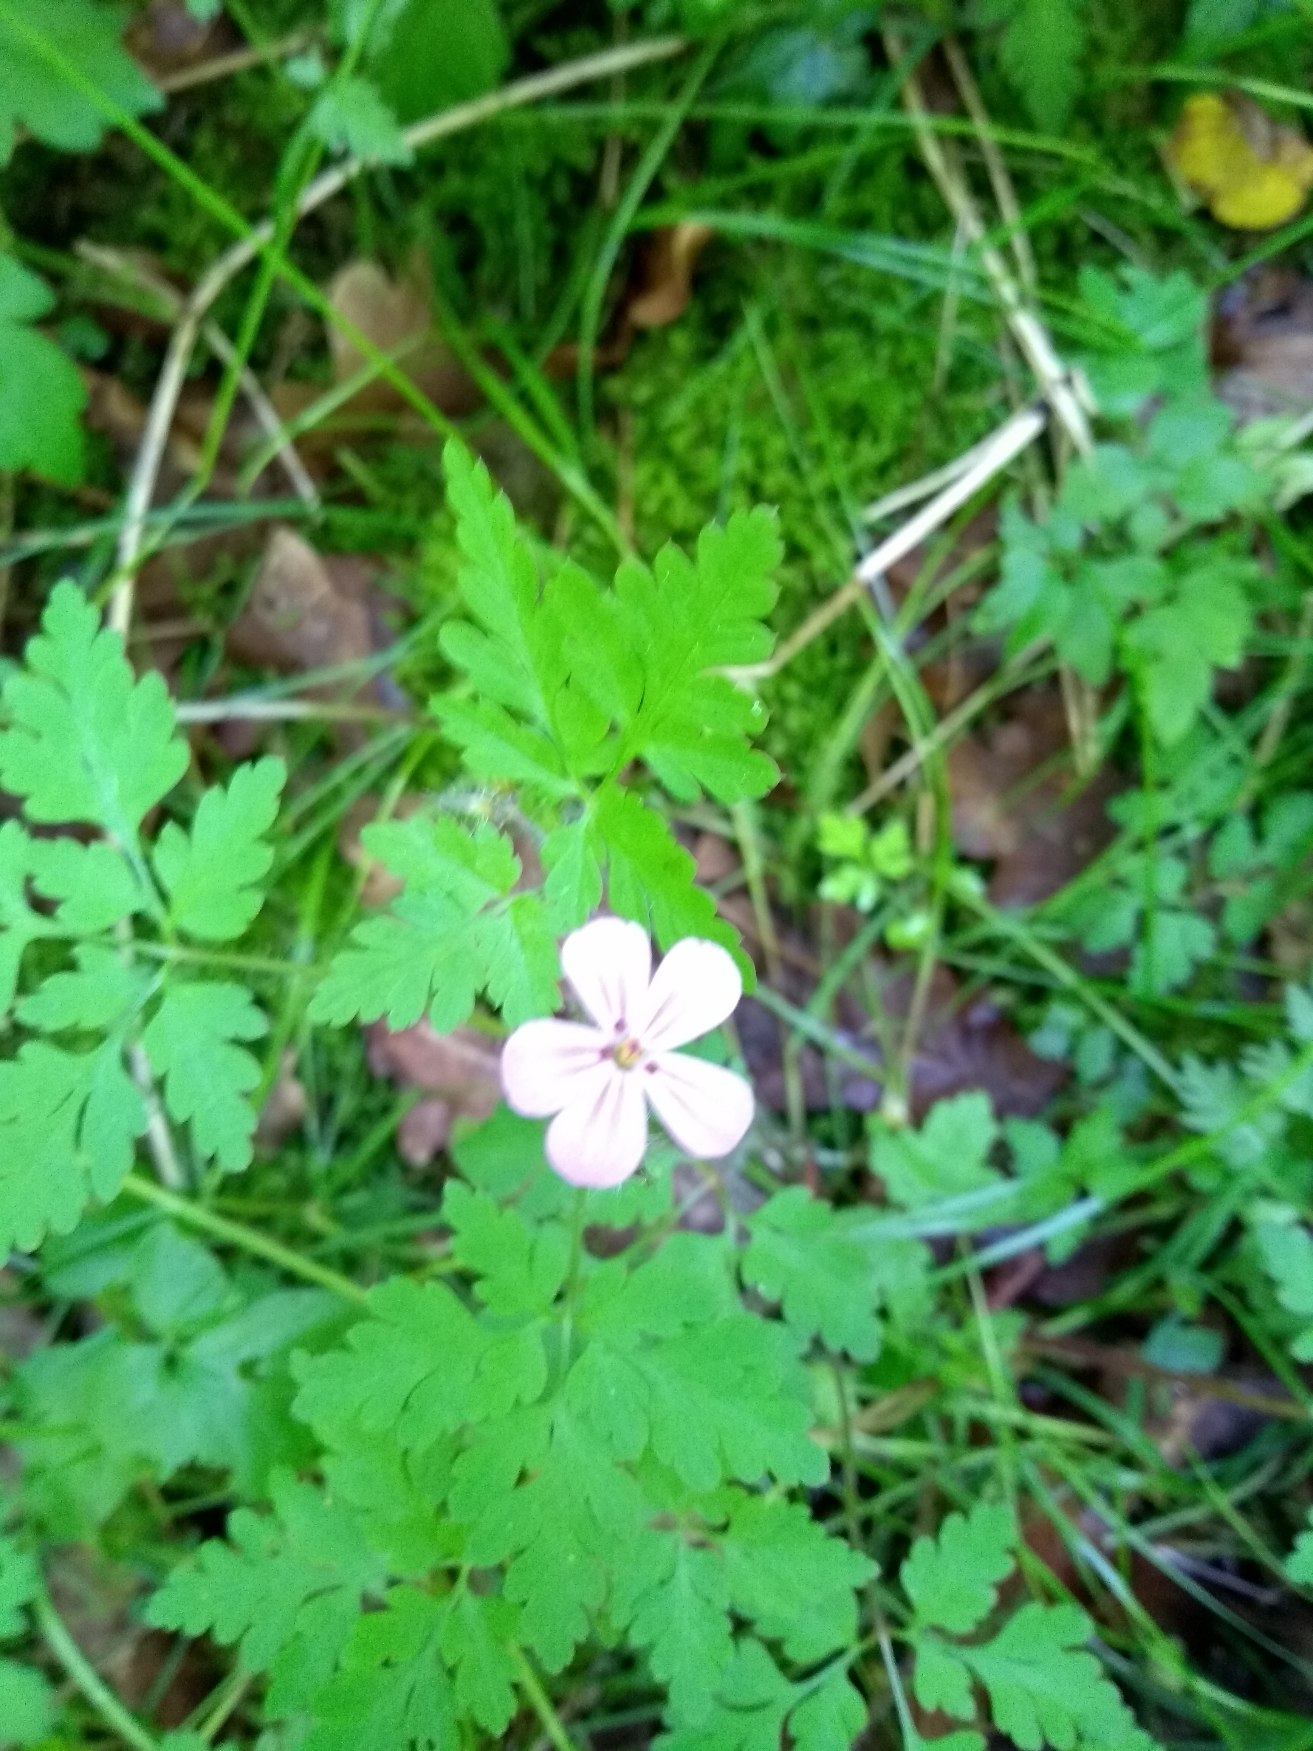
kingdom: Plantae
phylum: Tracheophyta
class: Magnoliopsida
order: Geraniales
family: Geraniaceae
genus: Geranium
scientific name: Geranium robertianum
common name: Stinkende storkenæb
